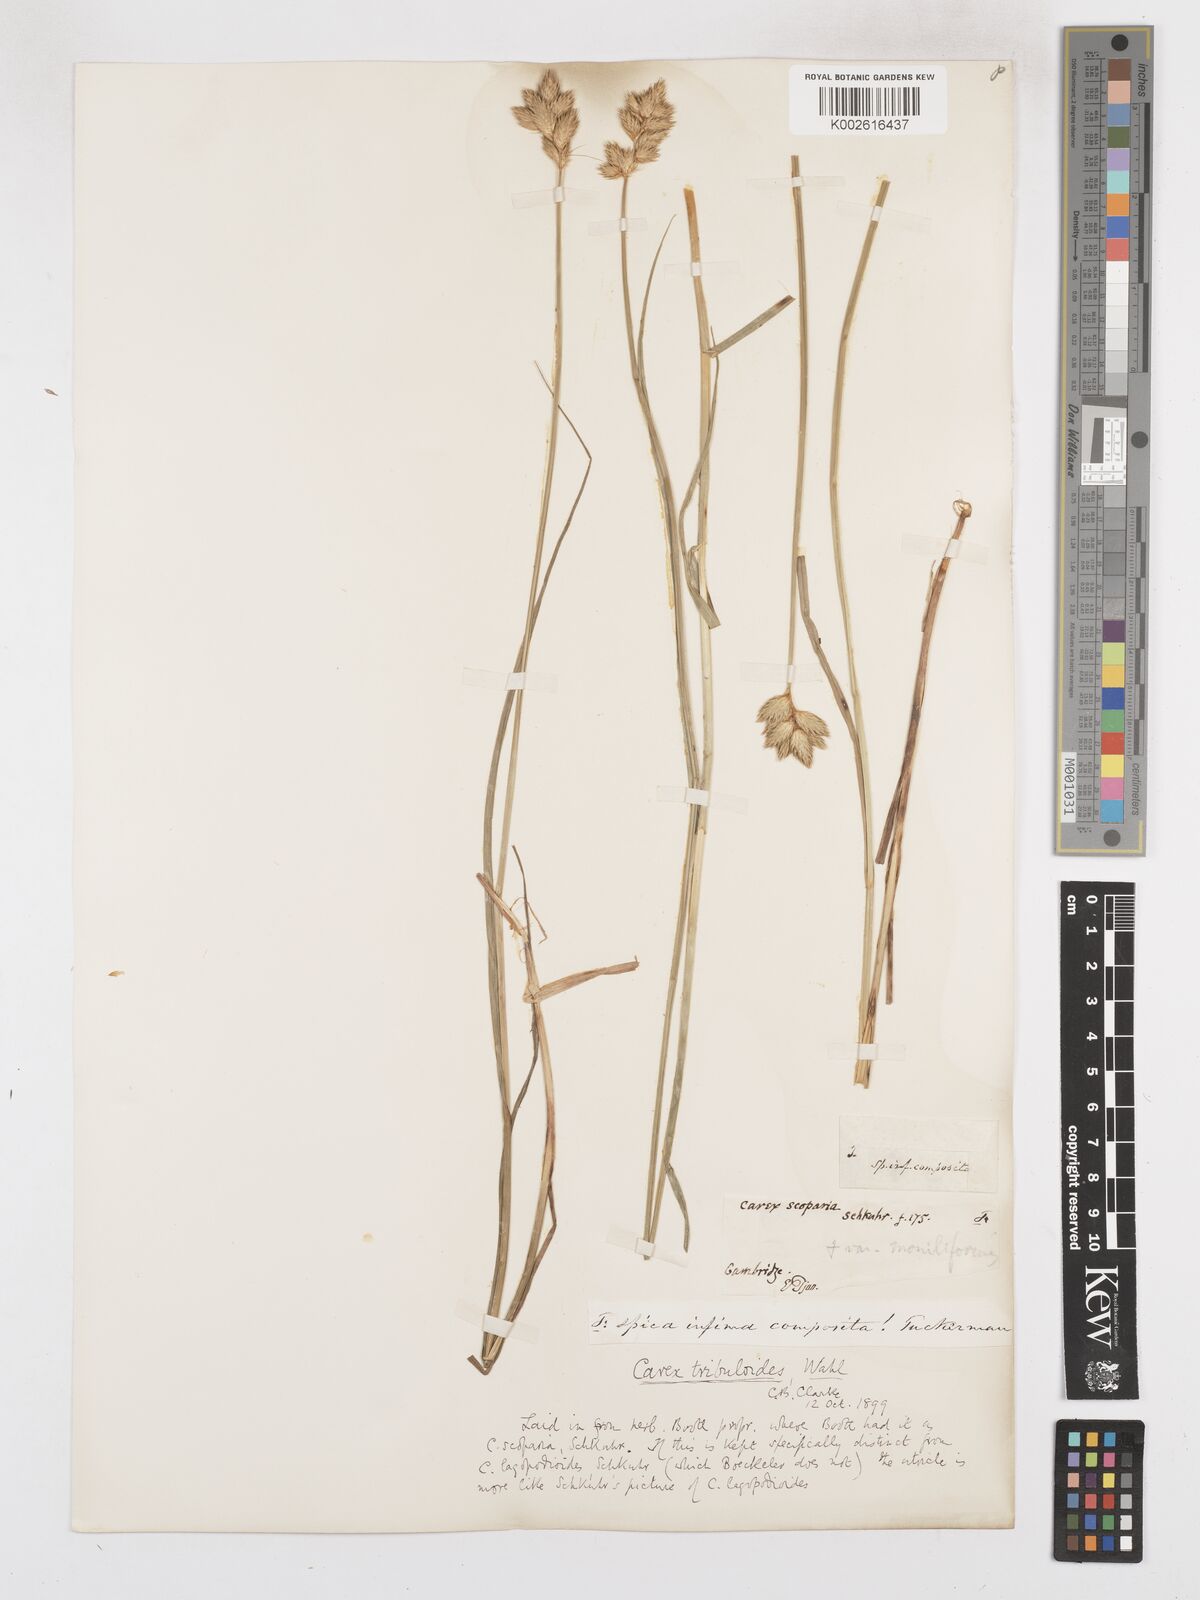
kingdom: Plantae
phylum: Tracheophyta
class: Liliopsida
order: Poales
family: Cyperaceae
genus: Carex
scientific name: Carex tribuloides
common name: Blunt broom sedge
